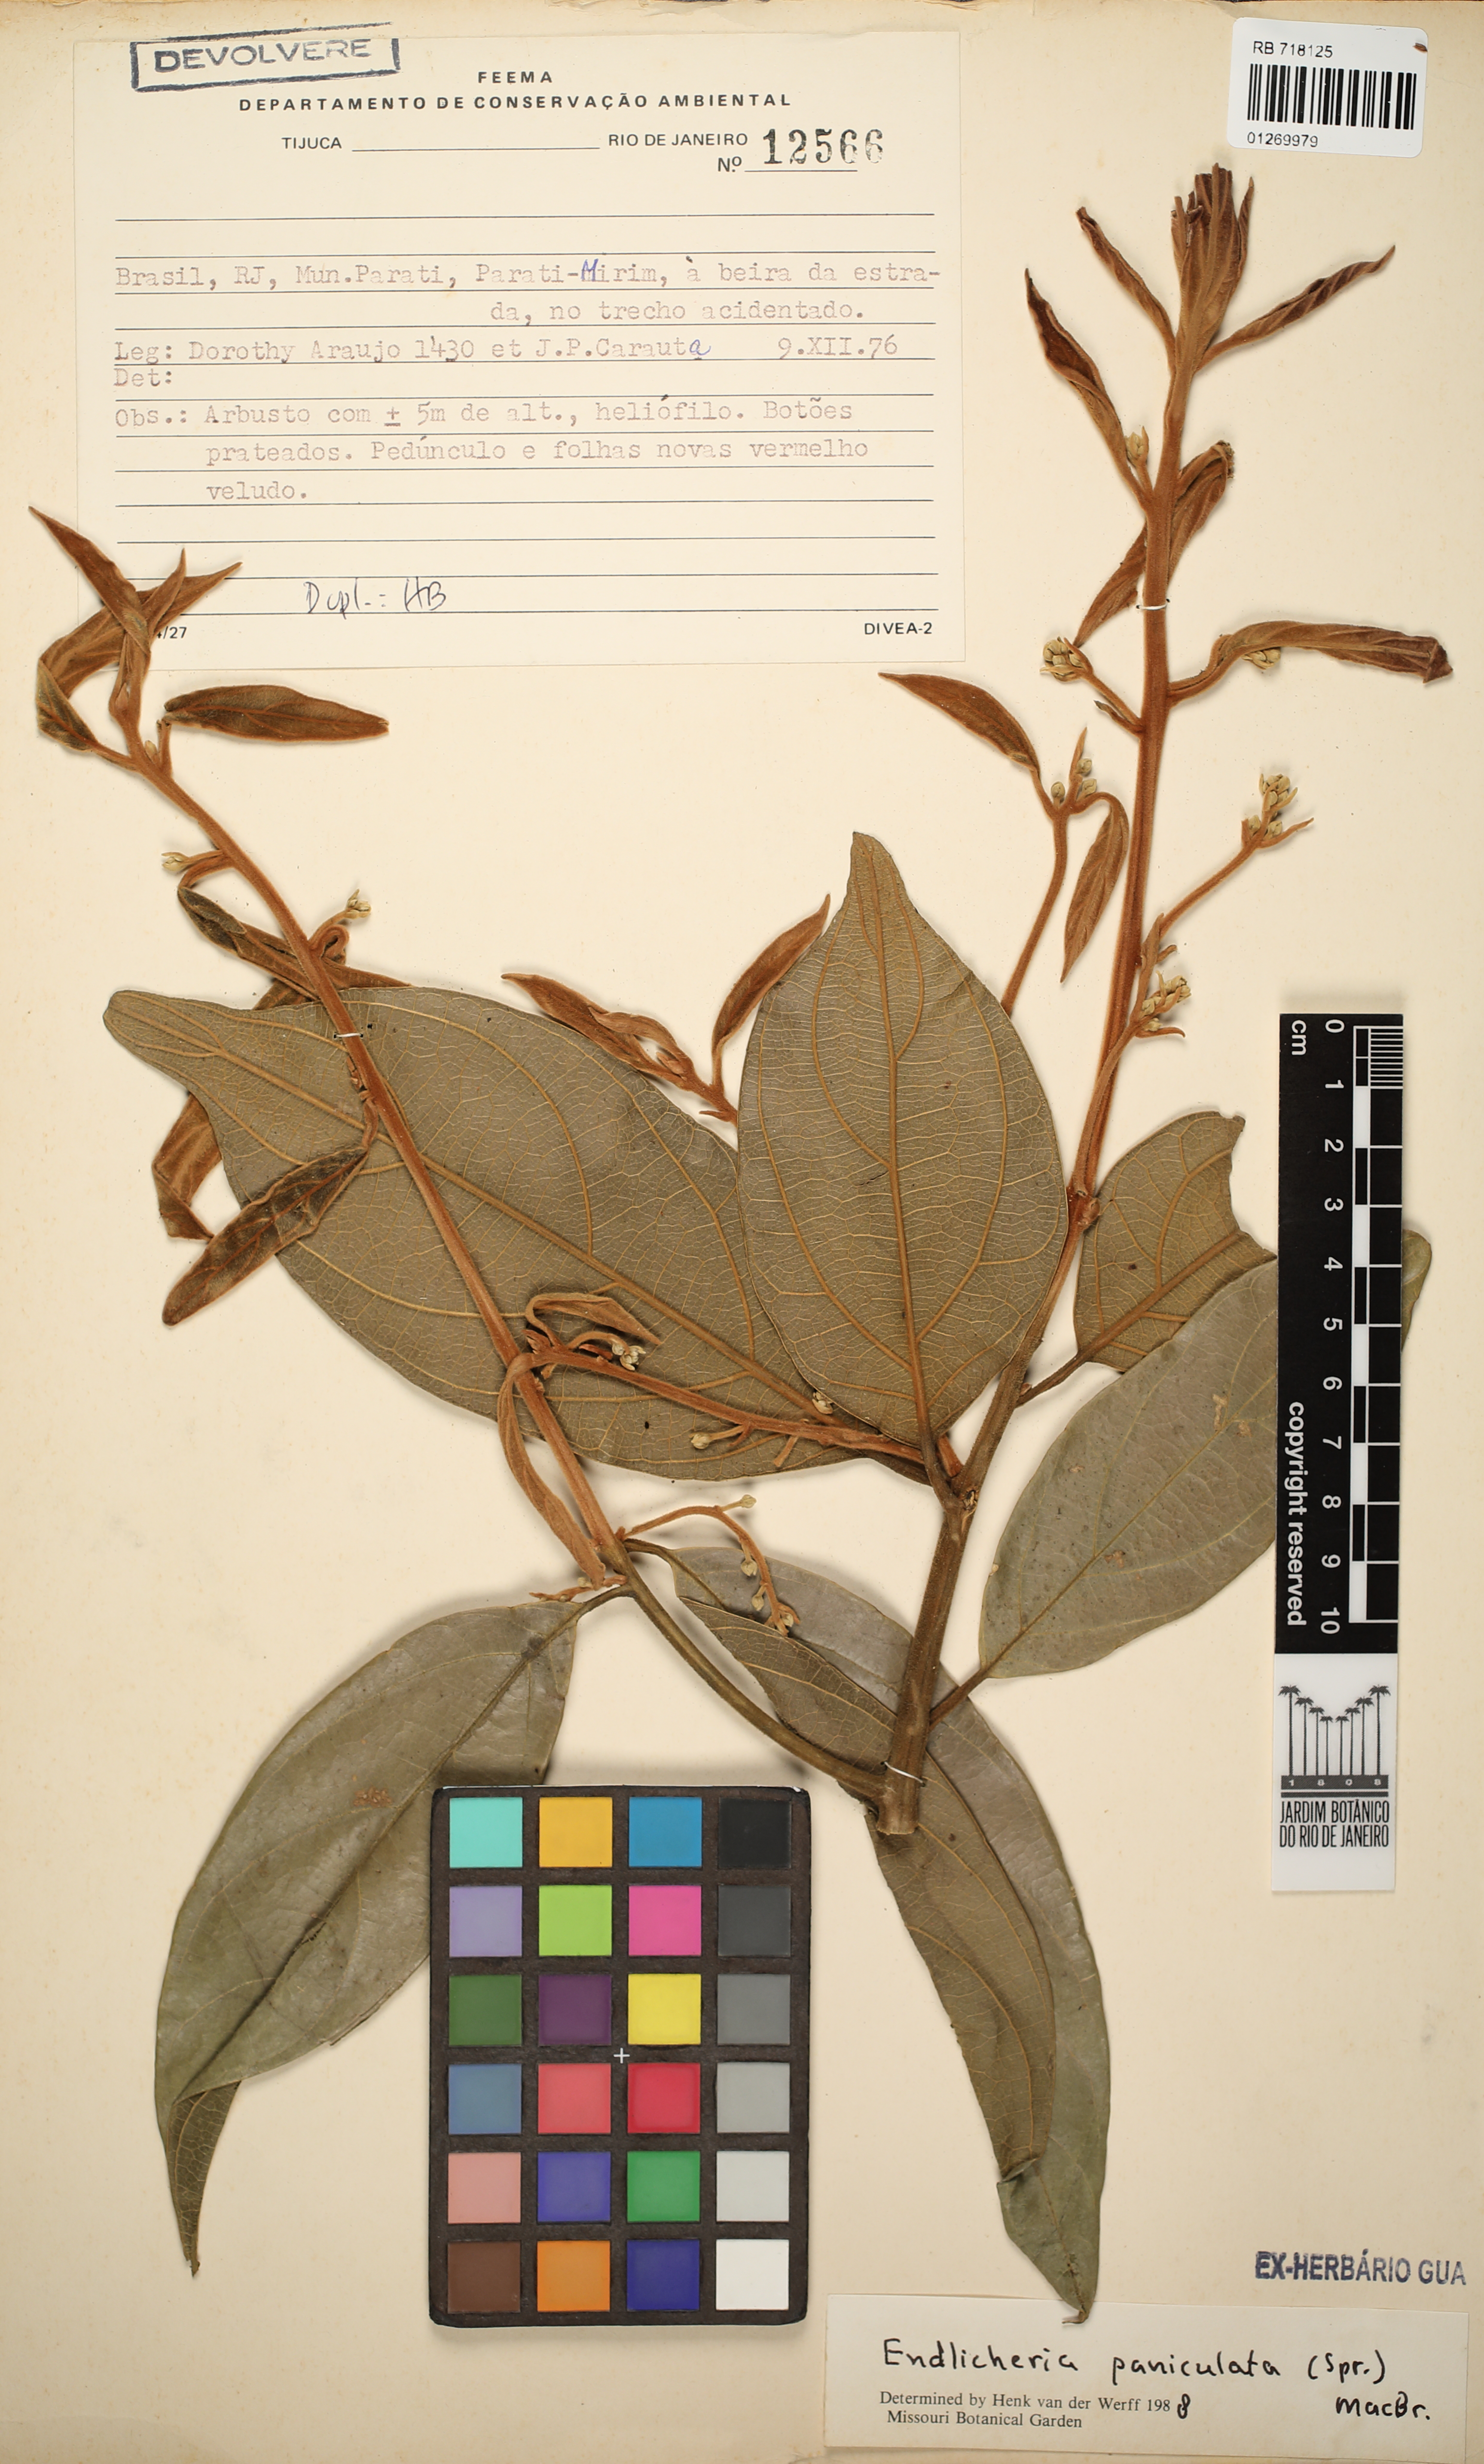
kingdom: Plantae
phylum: Tracheophyta
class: Magnoliopsida
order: Laurales
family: Lauraceae
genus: Endlicheria
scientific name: Endlicheria paniculata
